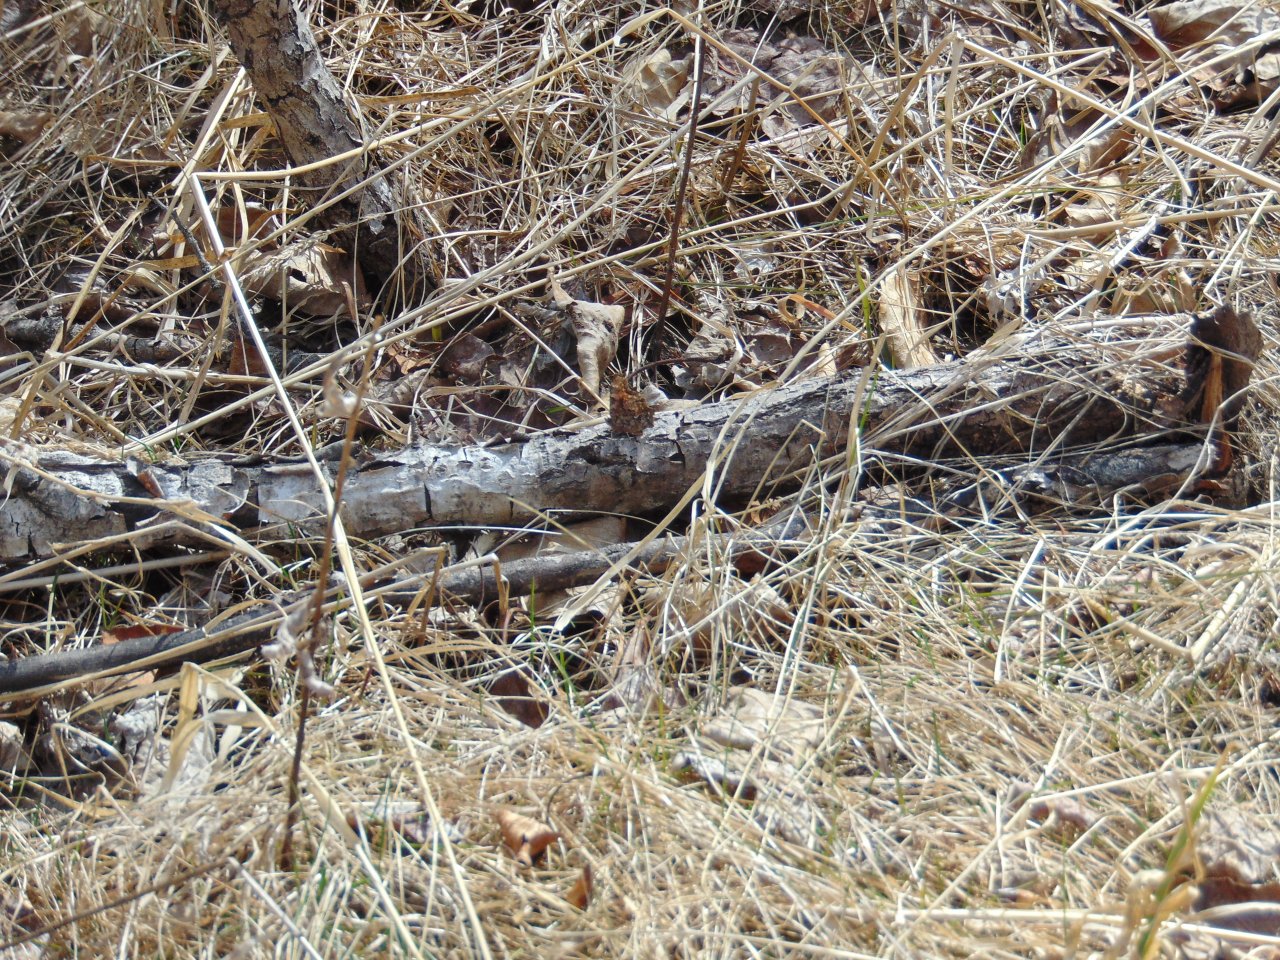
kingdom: Animalia
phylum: Arthropoda
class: Insecta
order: Lepidoptera
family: Nymphalidae
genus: Polygonia
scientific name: Polygonia
